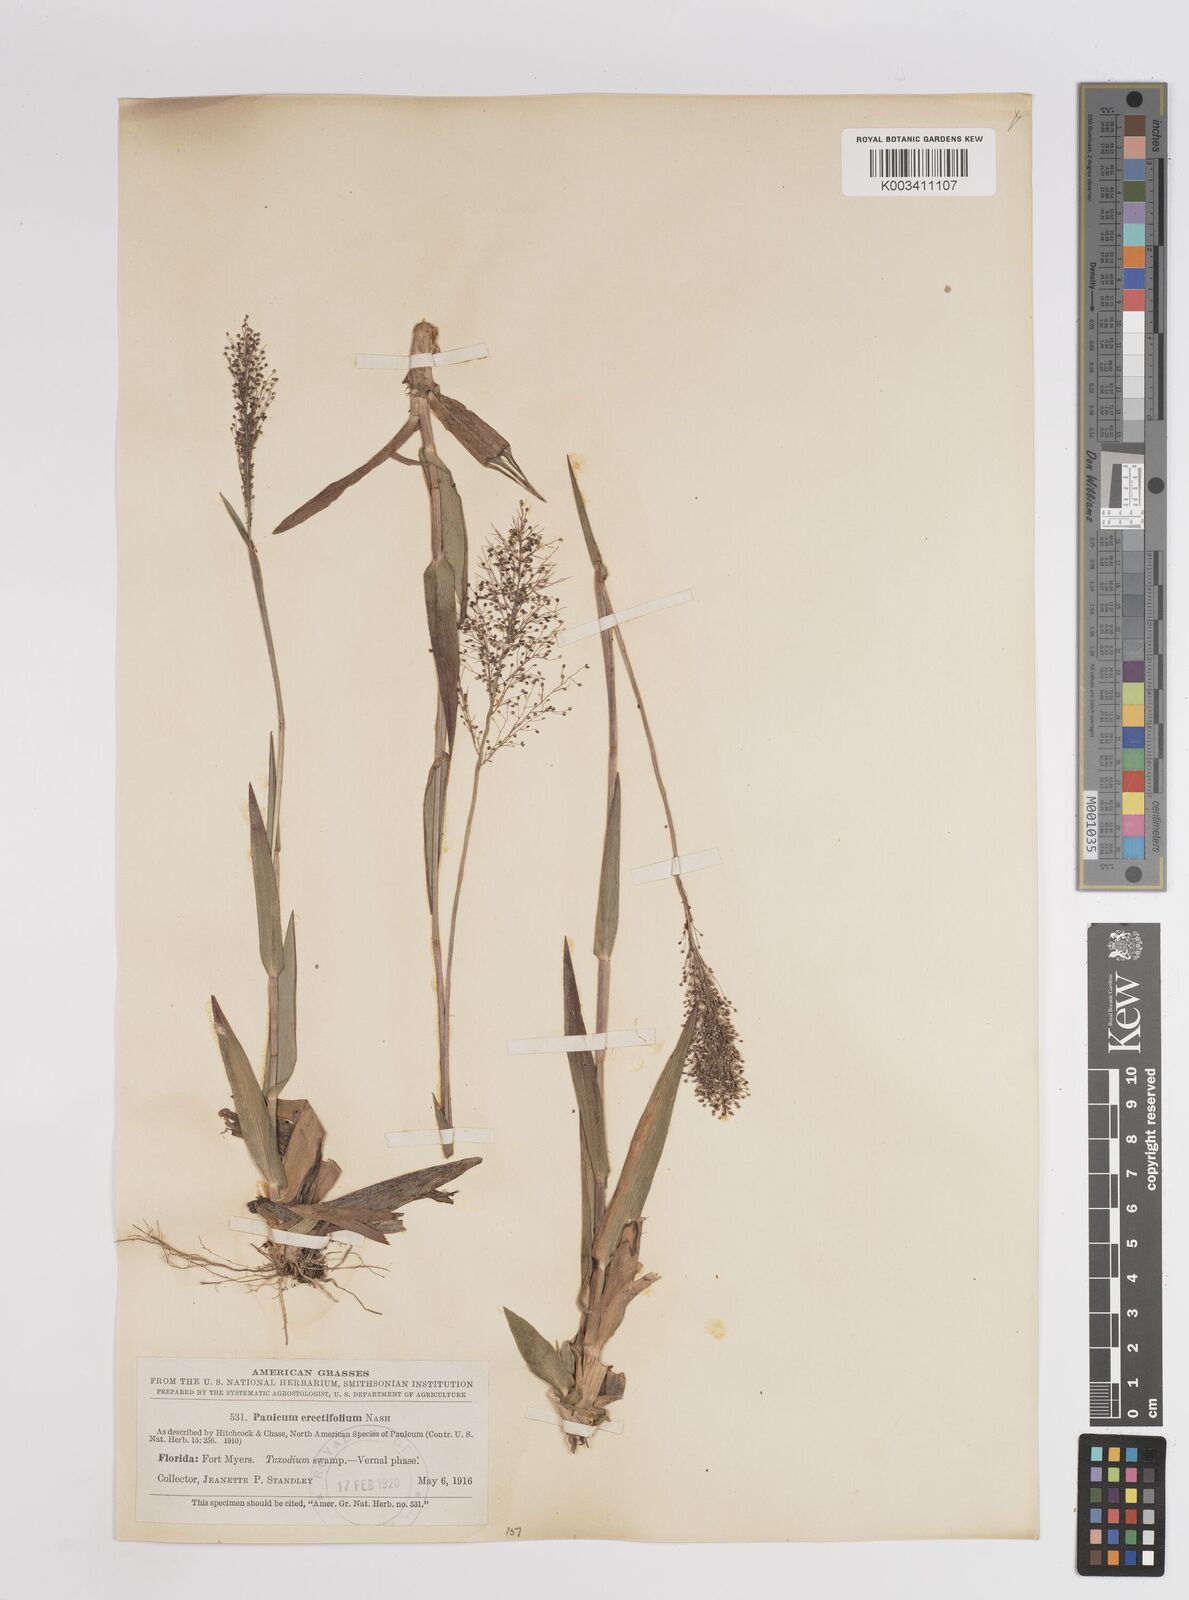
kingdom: Plantae
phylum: Tracheophyta
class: Liliopsida
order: Poales
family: Poaceae
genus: Dichanthelium
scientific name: Dichanthelium erectifolium
